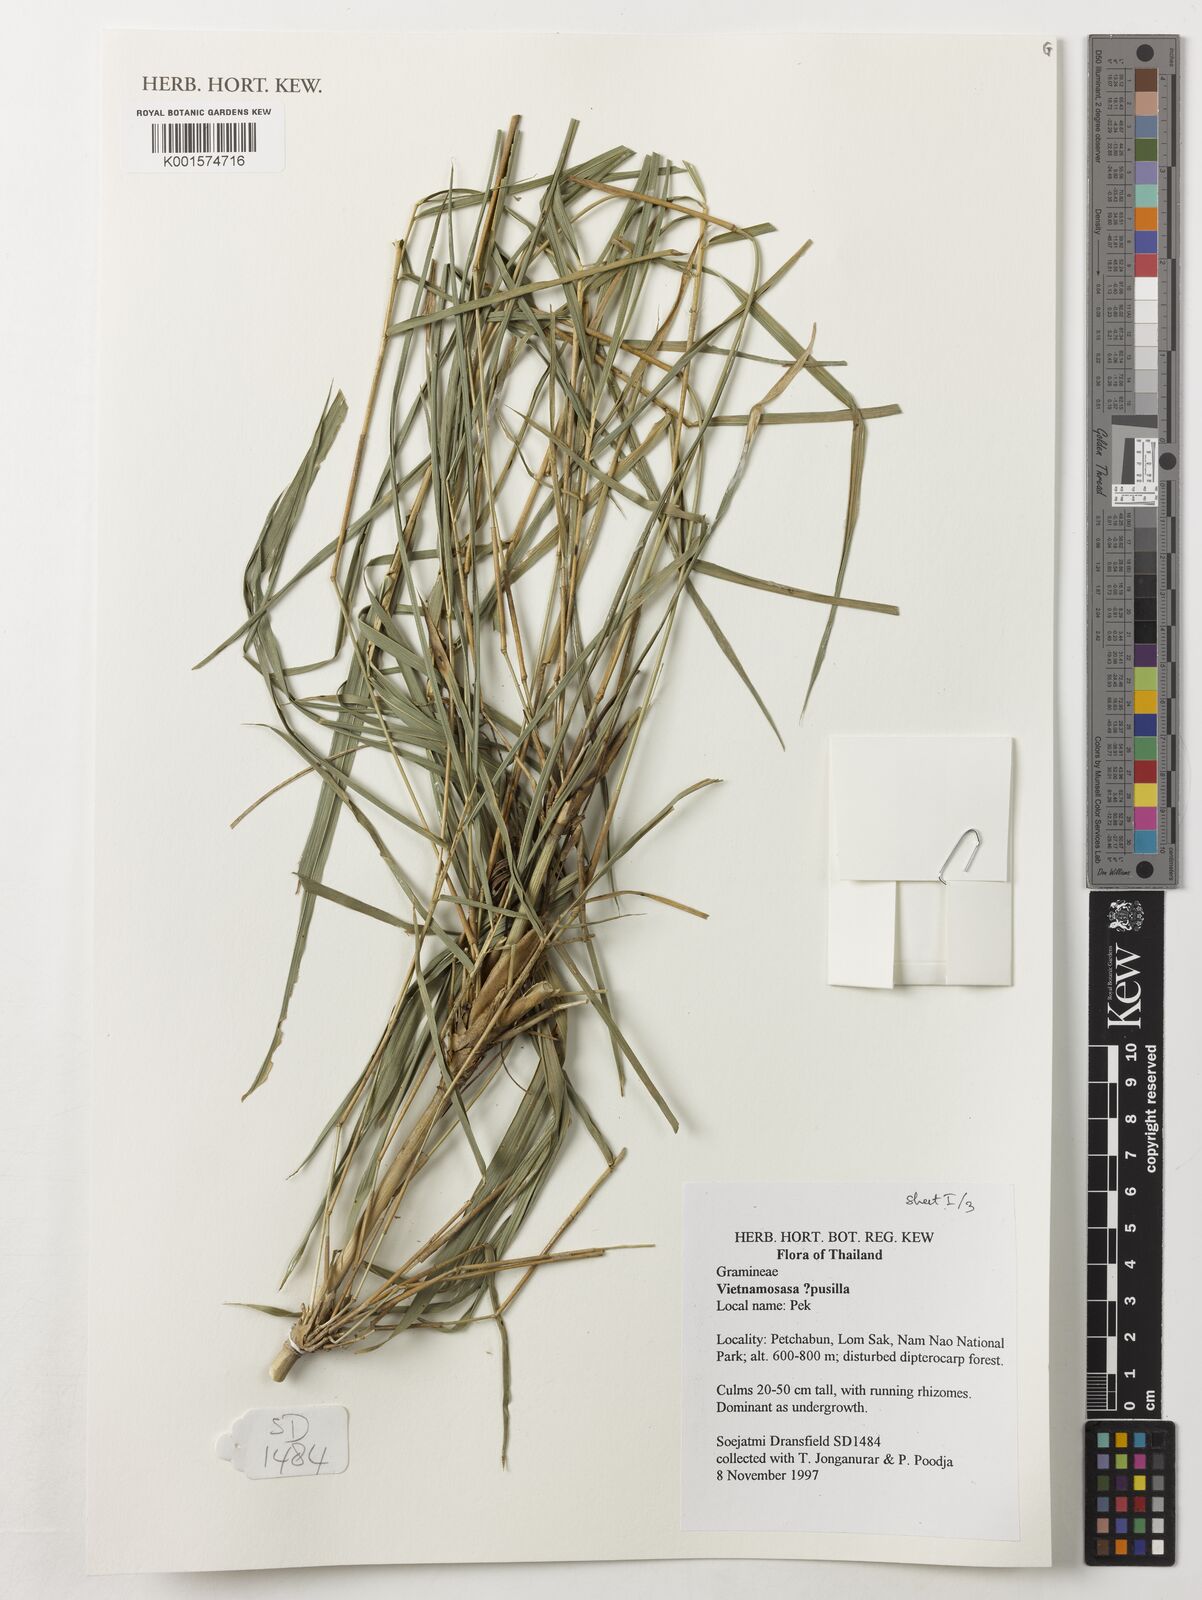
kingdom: Plantae
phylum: Tracheophyta
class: Liliopsida
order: Poales
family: Poaceae
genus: Vietnamosasa
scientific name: Vietnamosasa pusilla
